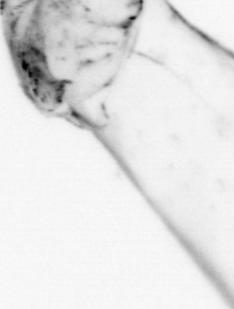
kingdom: Animalia
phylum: Chaetognatha
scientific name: Chaetognatha
